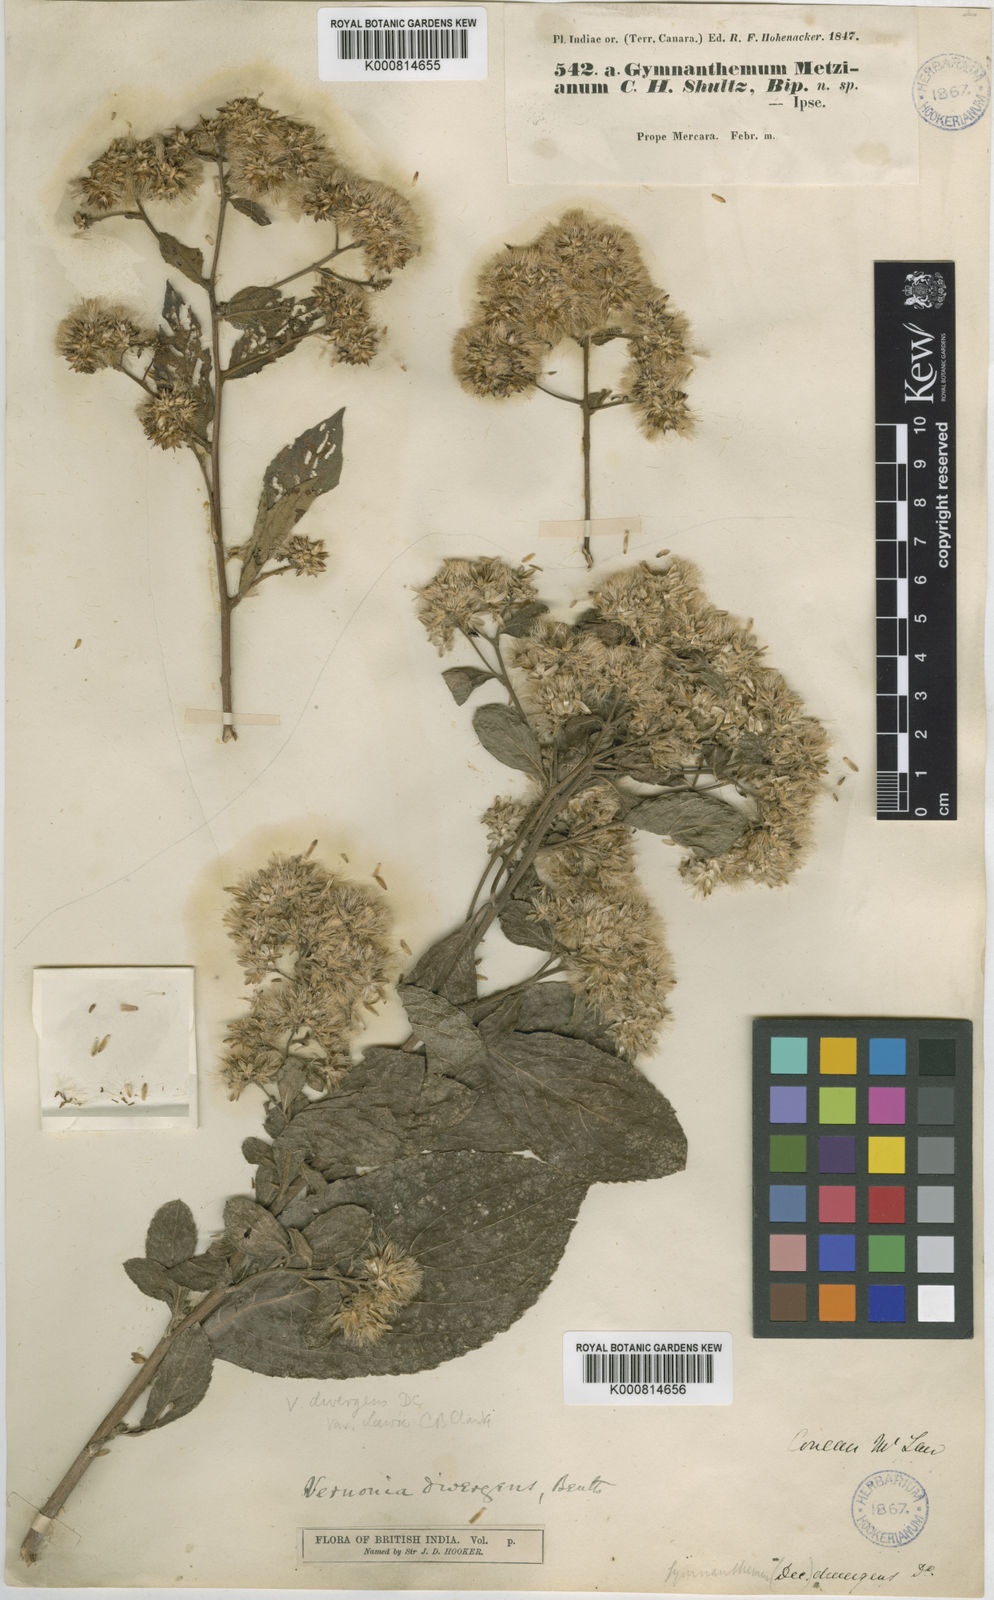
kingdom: Plantae
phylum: Tracheophyta
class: Magnoliopsida
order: Asterales
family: Asteraceae
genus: Vernonia
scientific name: Vernonia
